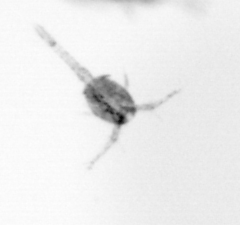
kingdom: Animalia
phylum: Arthropoda
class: Copepoda
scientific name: Copepoda
